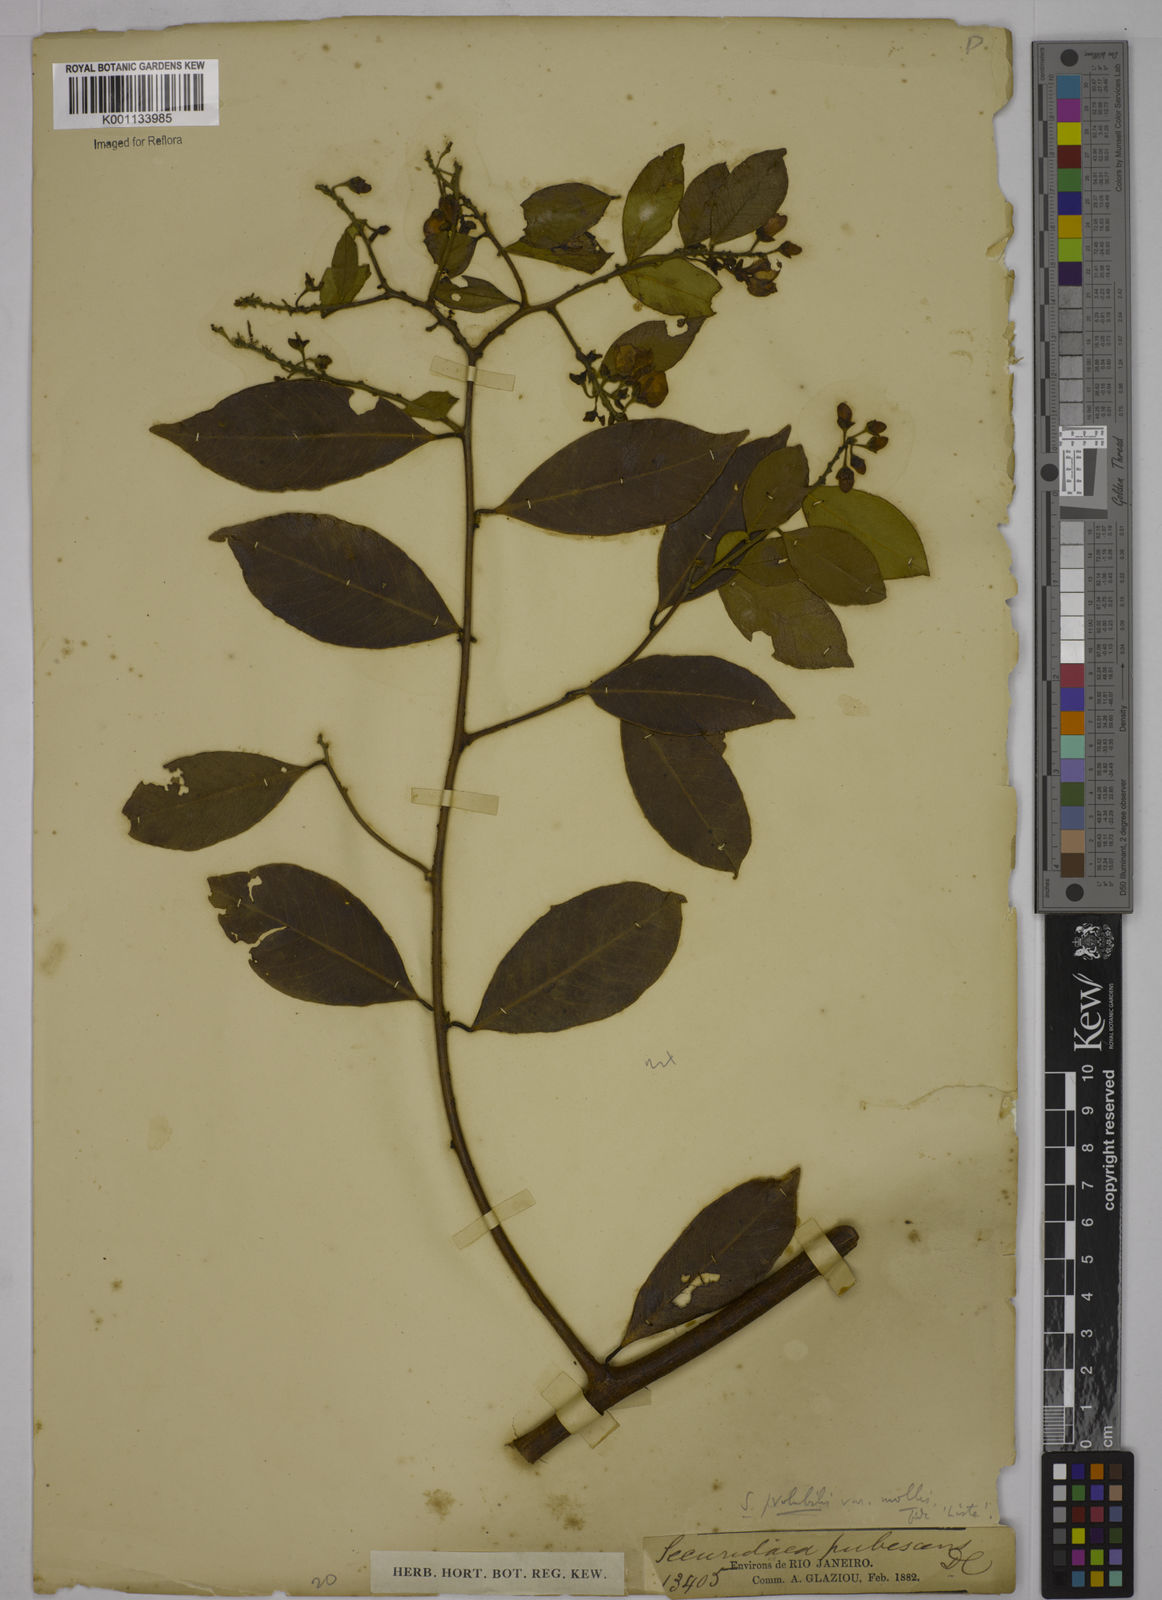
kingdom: Plantae
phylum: Tracheophyta
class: Magnoliopsida
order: Fabales
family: Polygalaceae
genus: Securidaca
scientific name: Securidaca diversifolia
